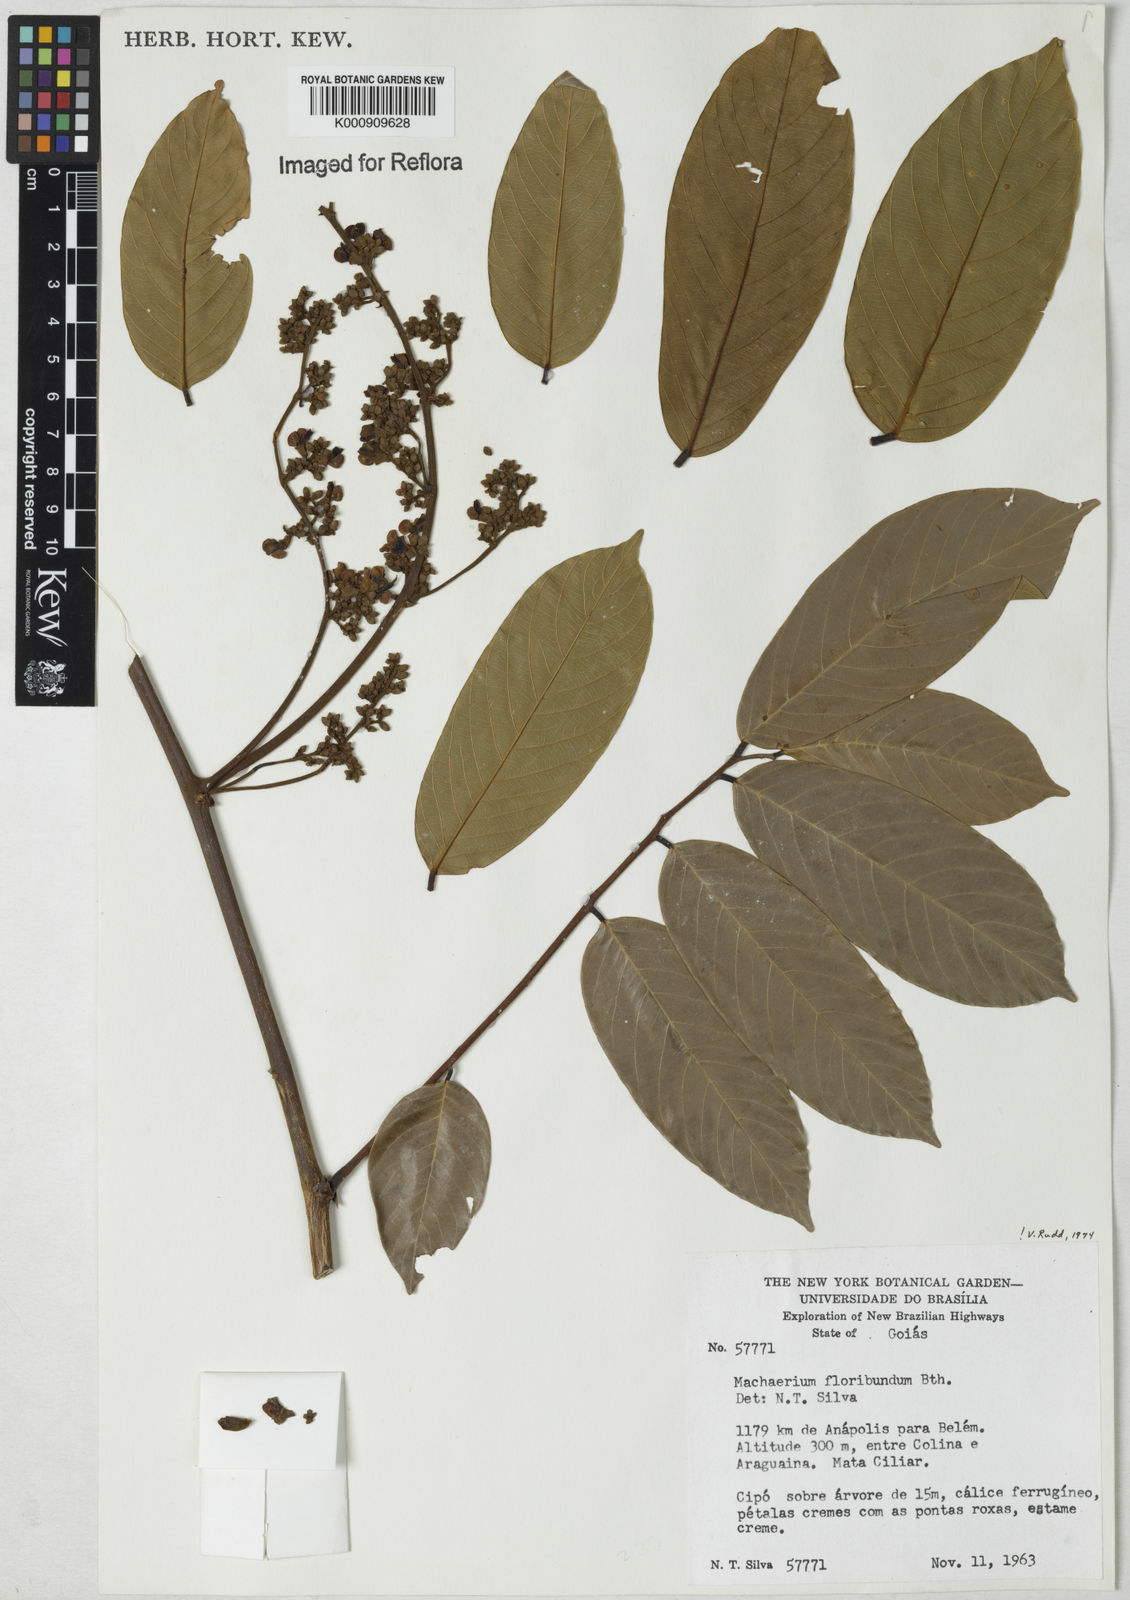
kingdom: Plantae
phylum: Tracheophyta
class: Magnoliopsida
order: Fabales
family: Fabaceae
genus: Machaerium
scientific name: Machaerium floribundum
